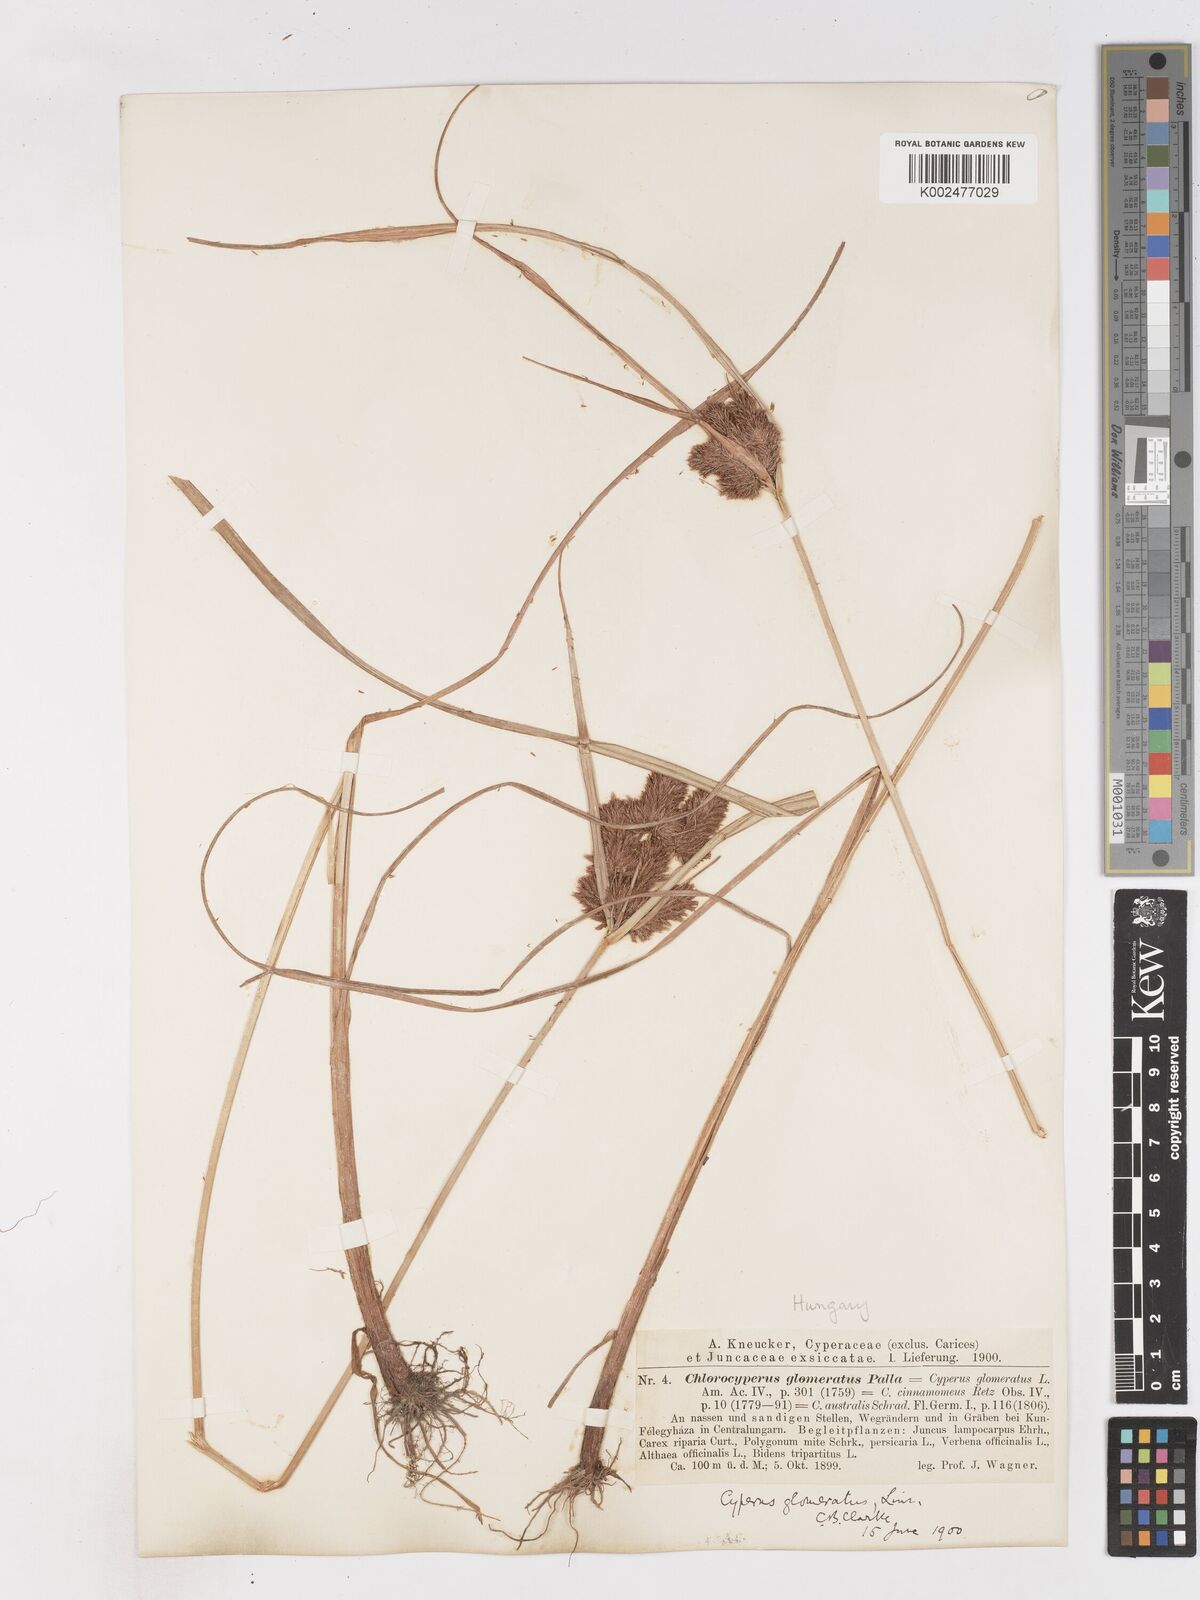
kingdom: Plantae
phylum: Tracheophyta
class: Liliopsida
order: Poales
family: Cyperaceae
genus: Cyperus
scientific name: Cyperus glomeratus
